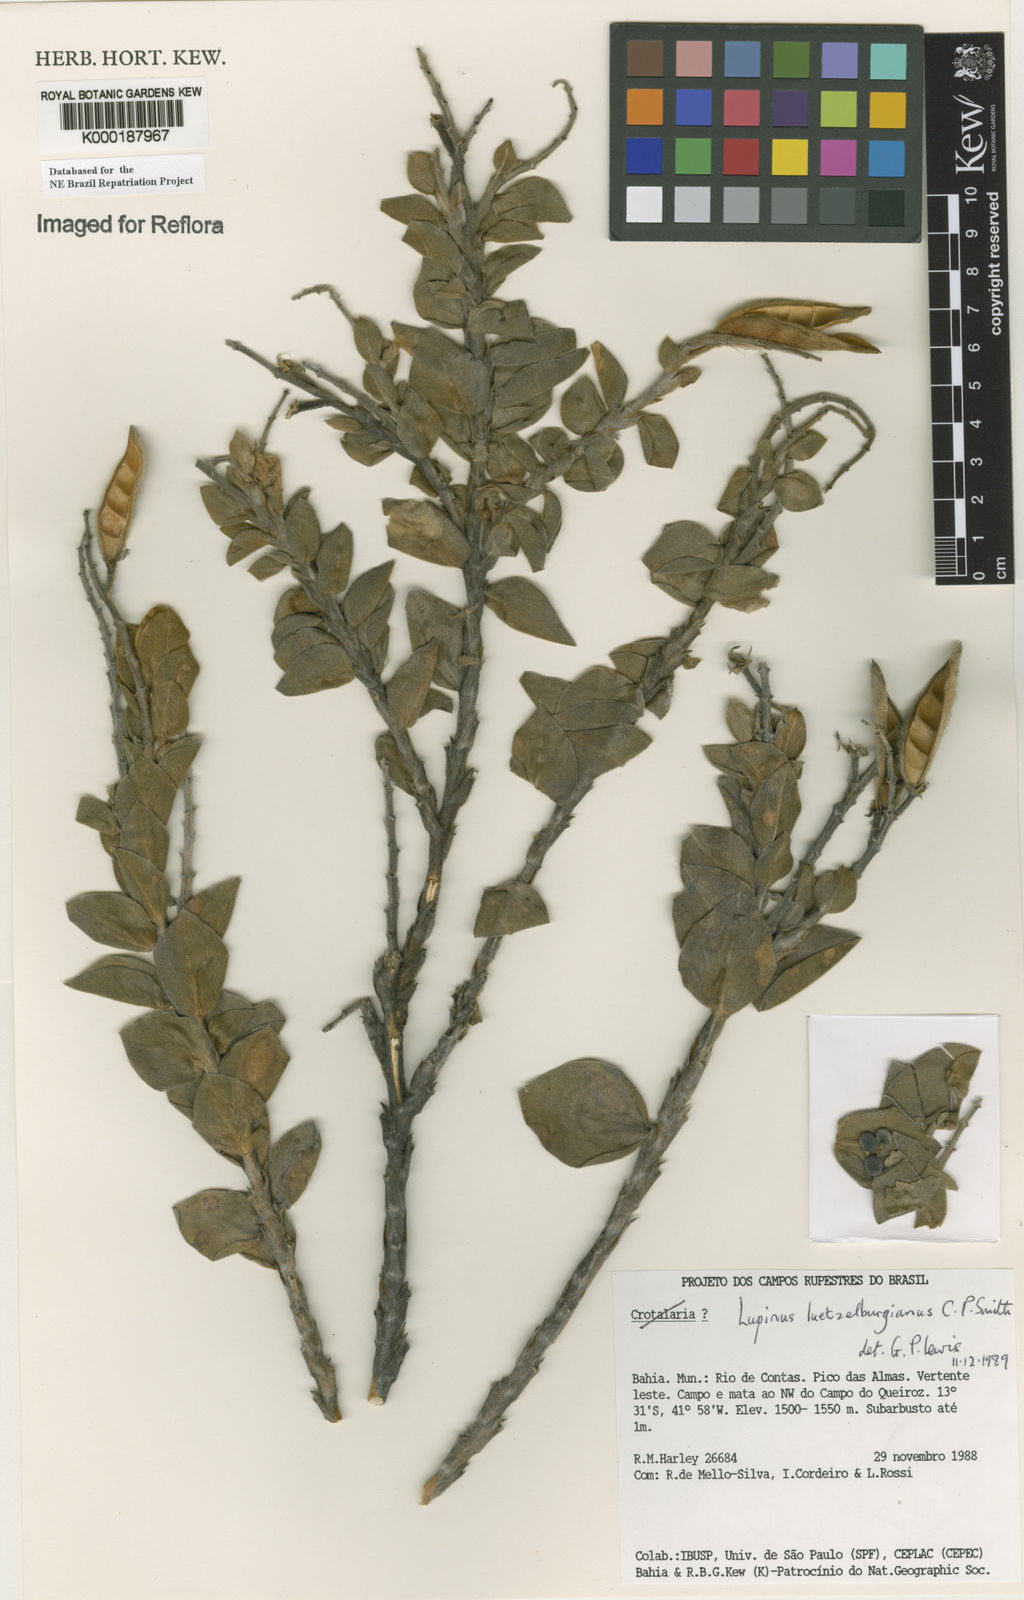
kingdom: Plantae
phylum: Tracheophyta
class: Magnoliopsida
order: Fabales
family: Fabaceae
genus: Lupinus
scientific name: Lupinus
